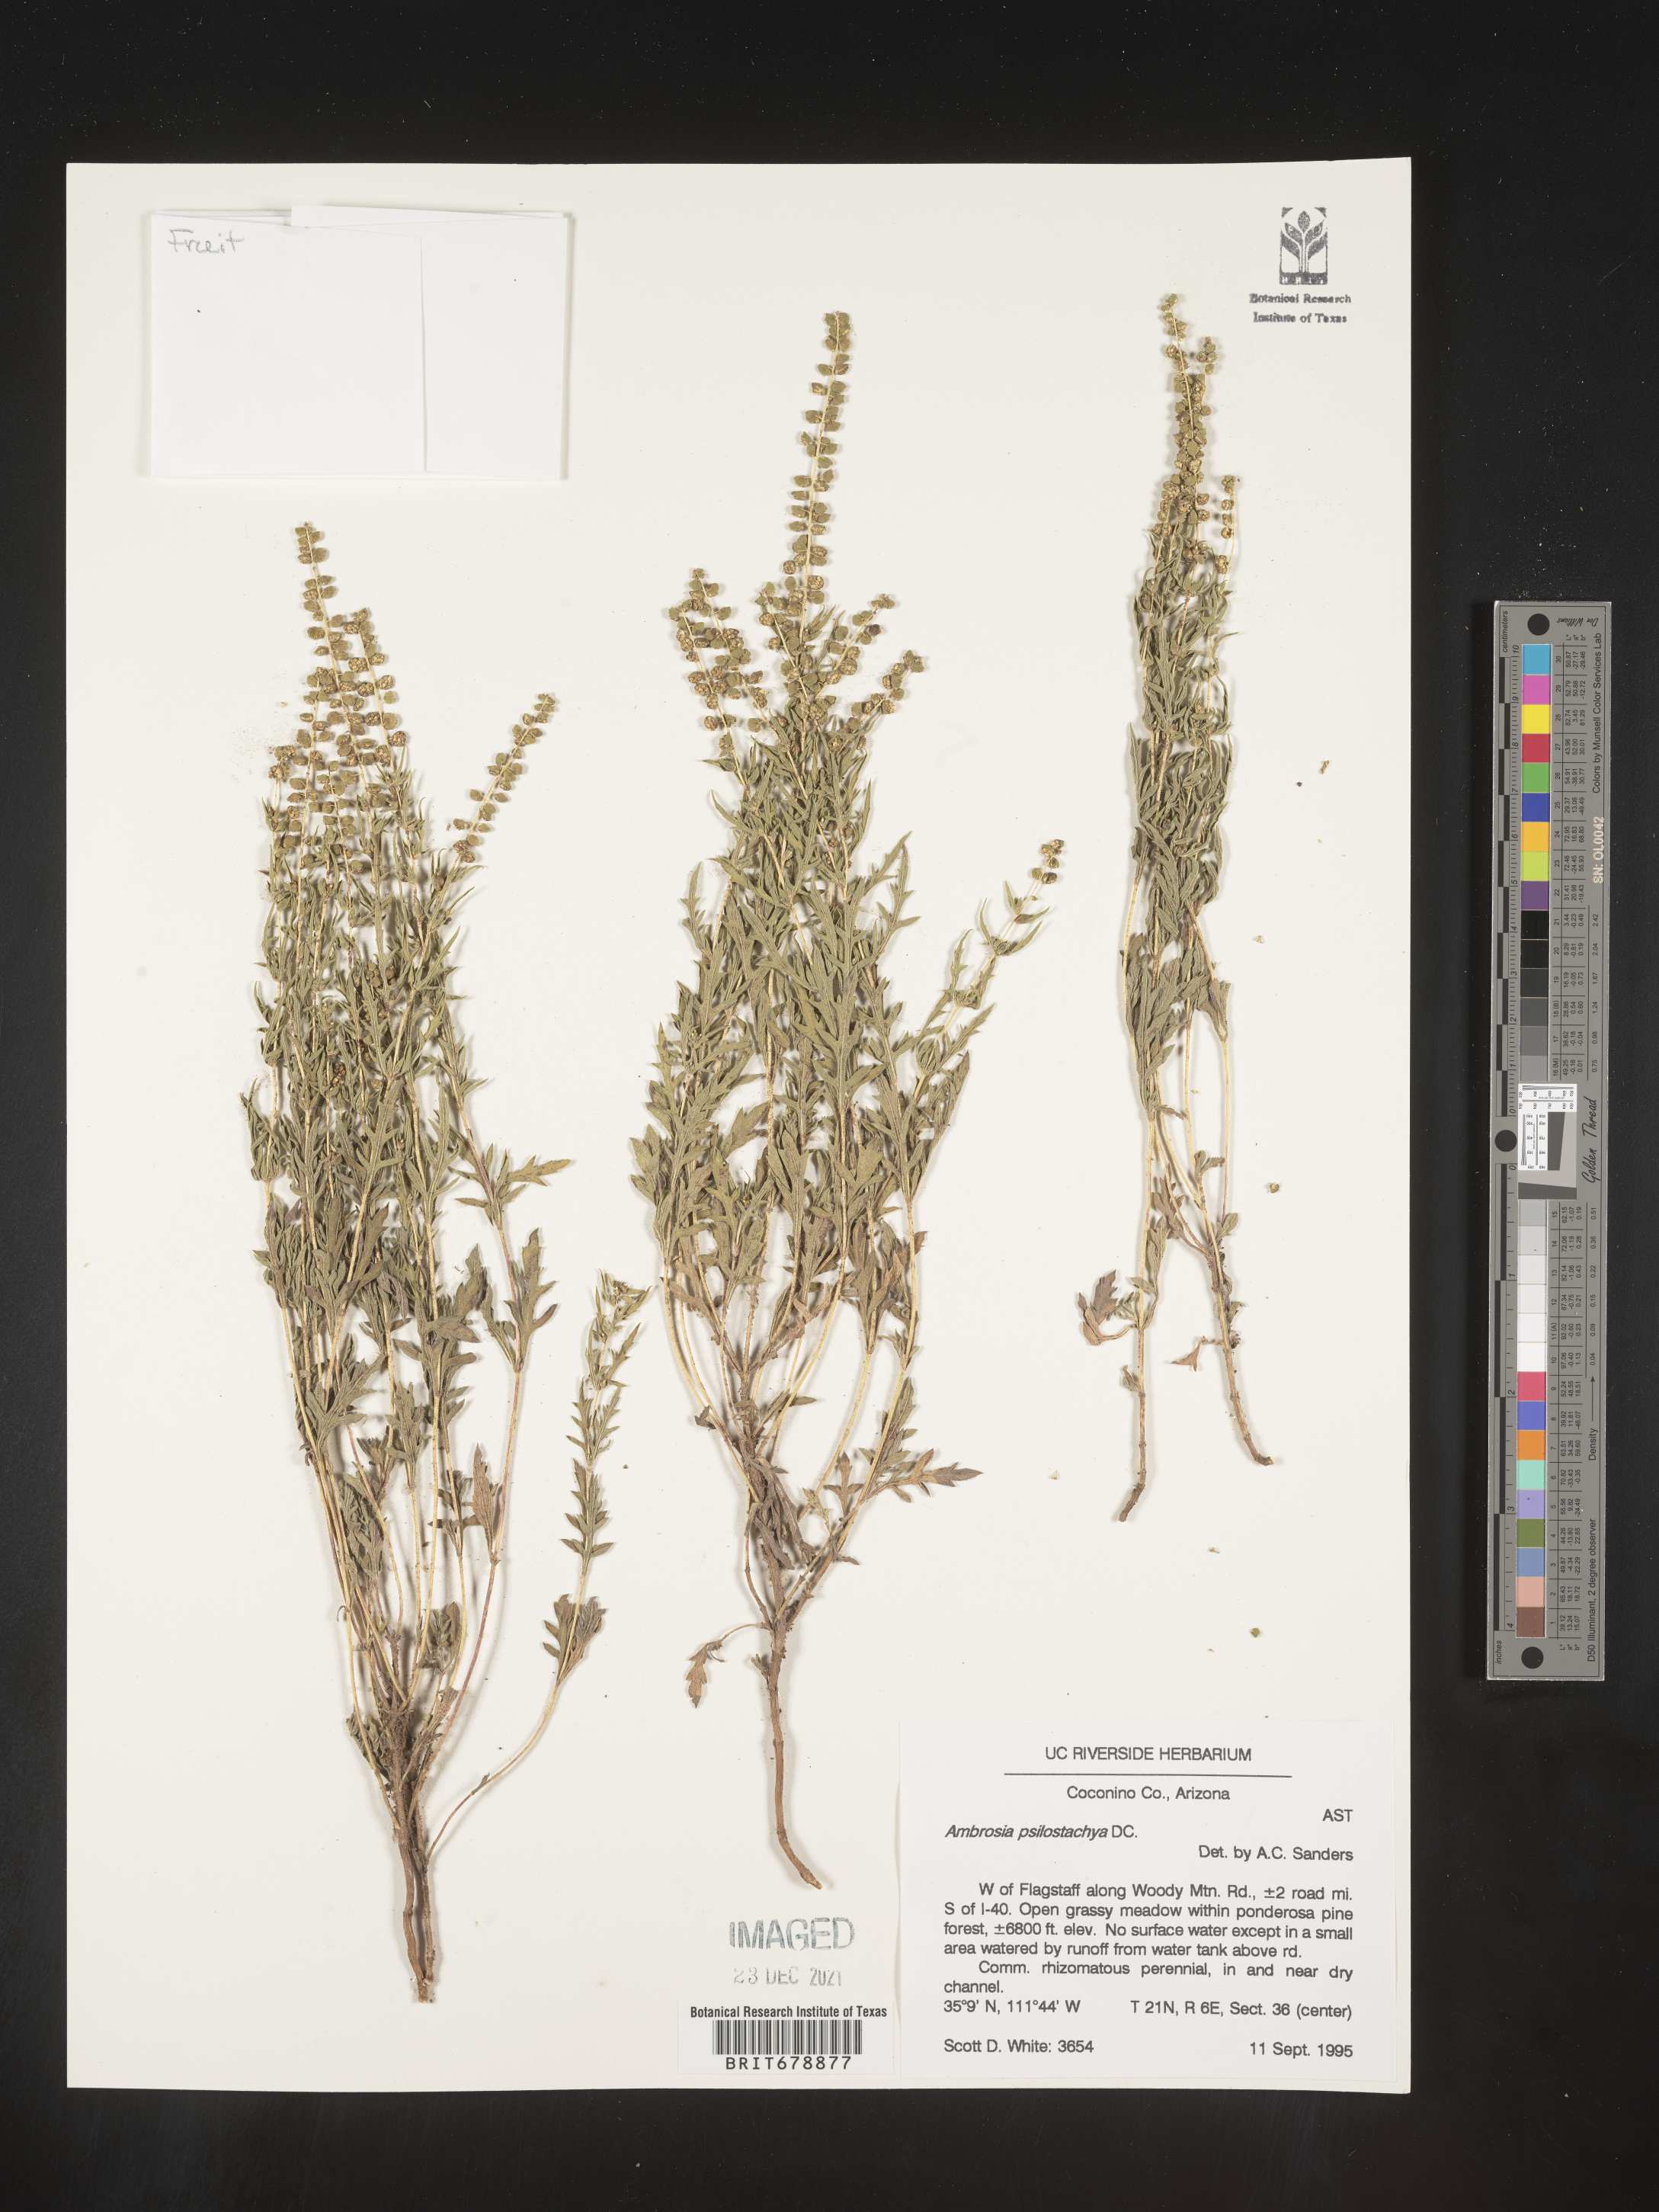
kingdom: Plantae
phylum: Tracheophyta
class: Magnoliopsida
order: Asterales
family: Asteraceae
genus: Ambrosia
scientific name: Ambrosia psilostachya
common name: Perennial ragweed
